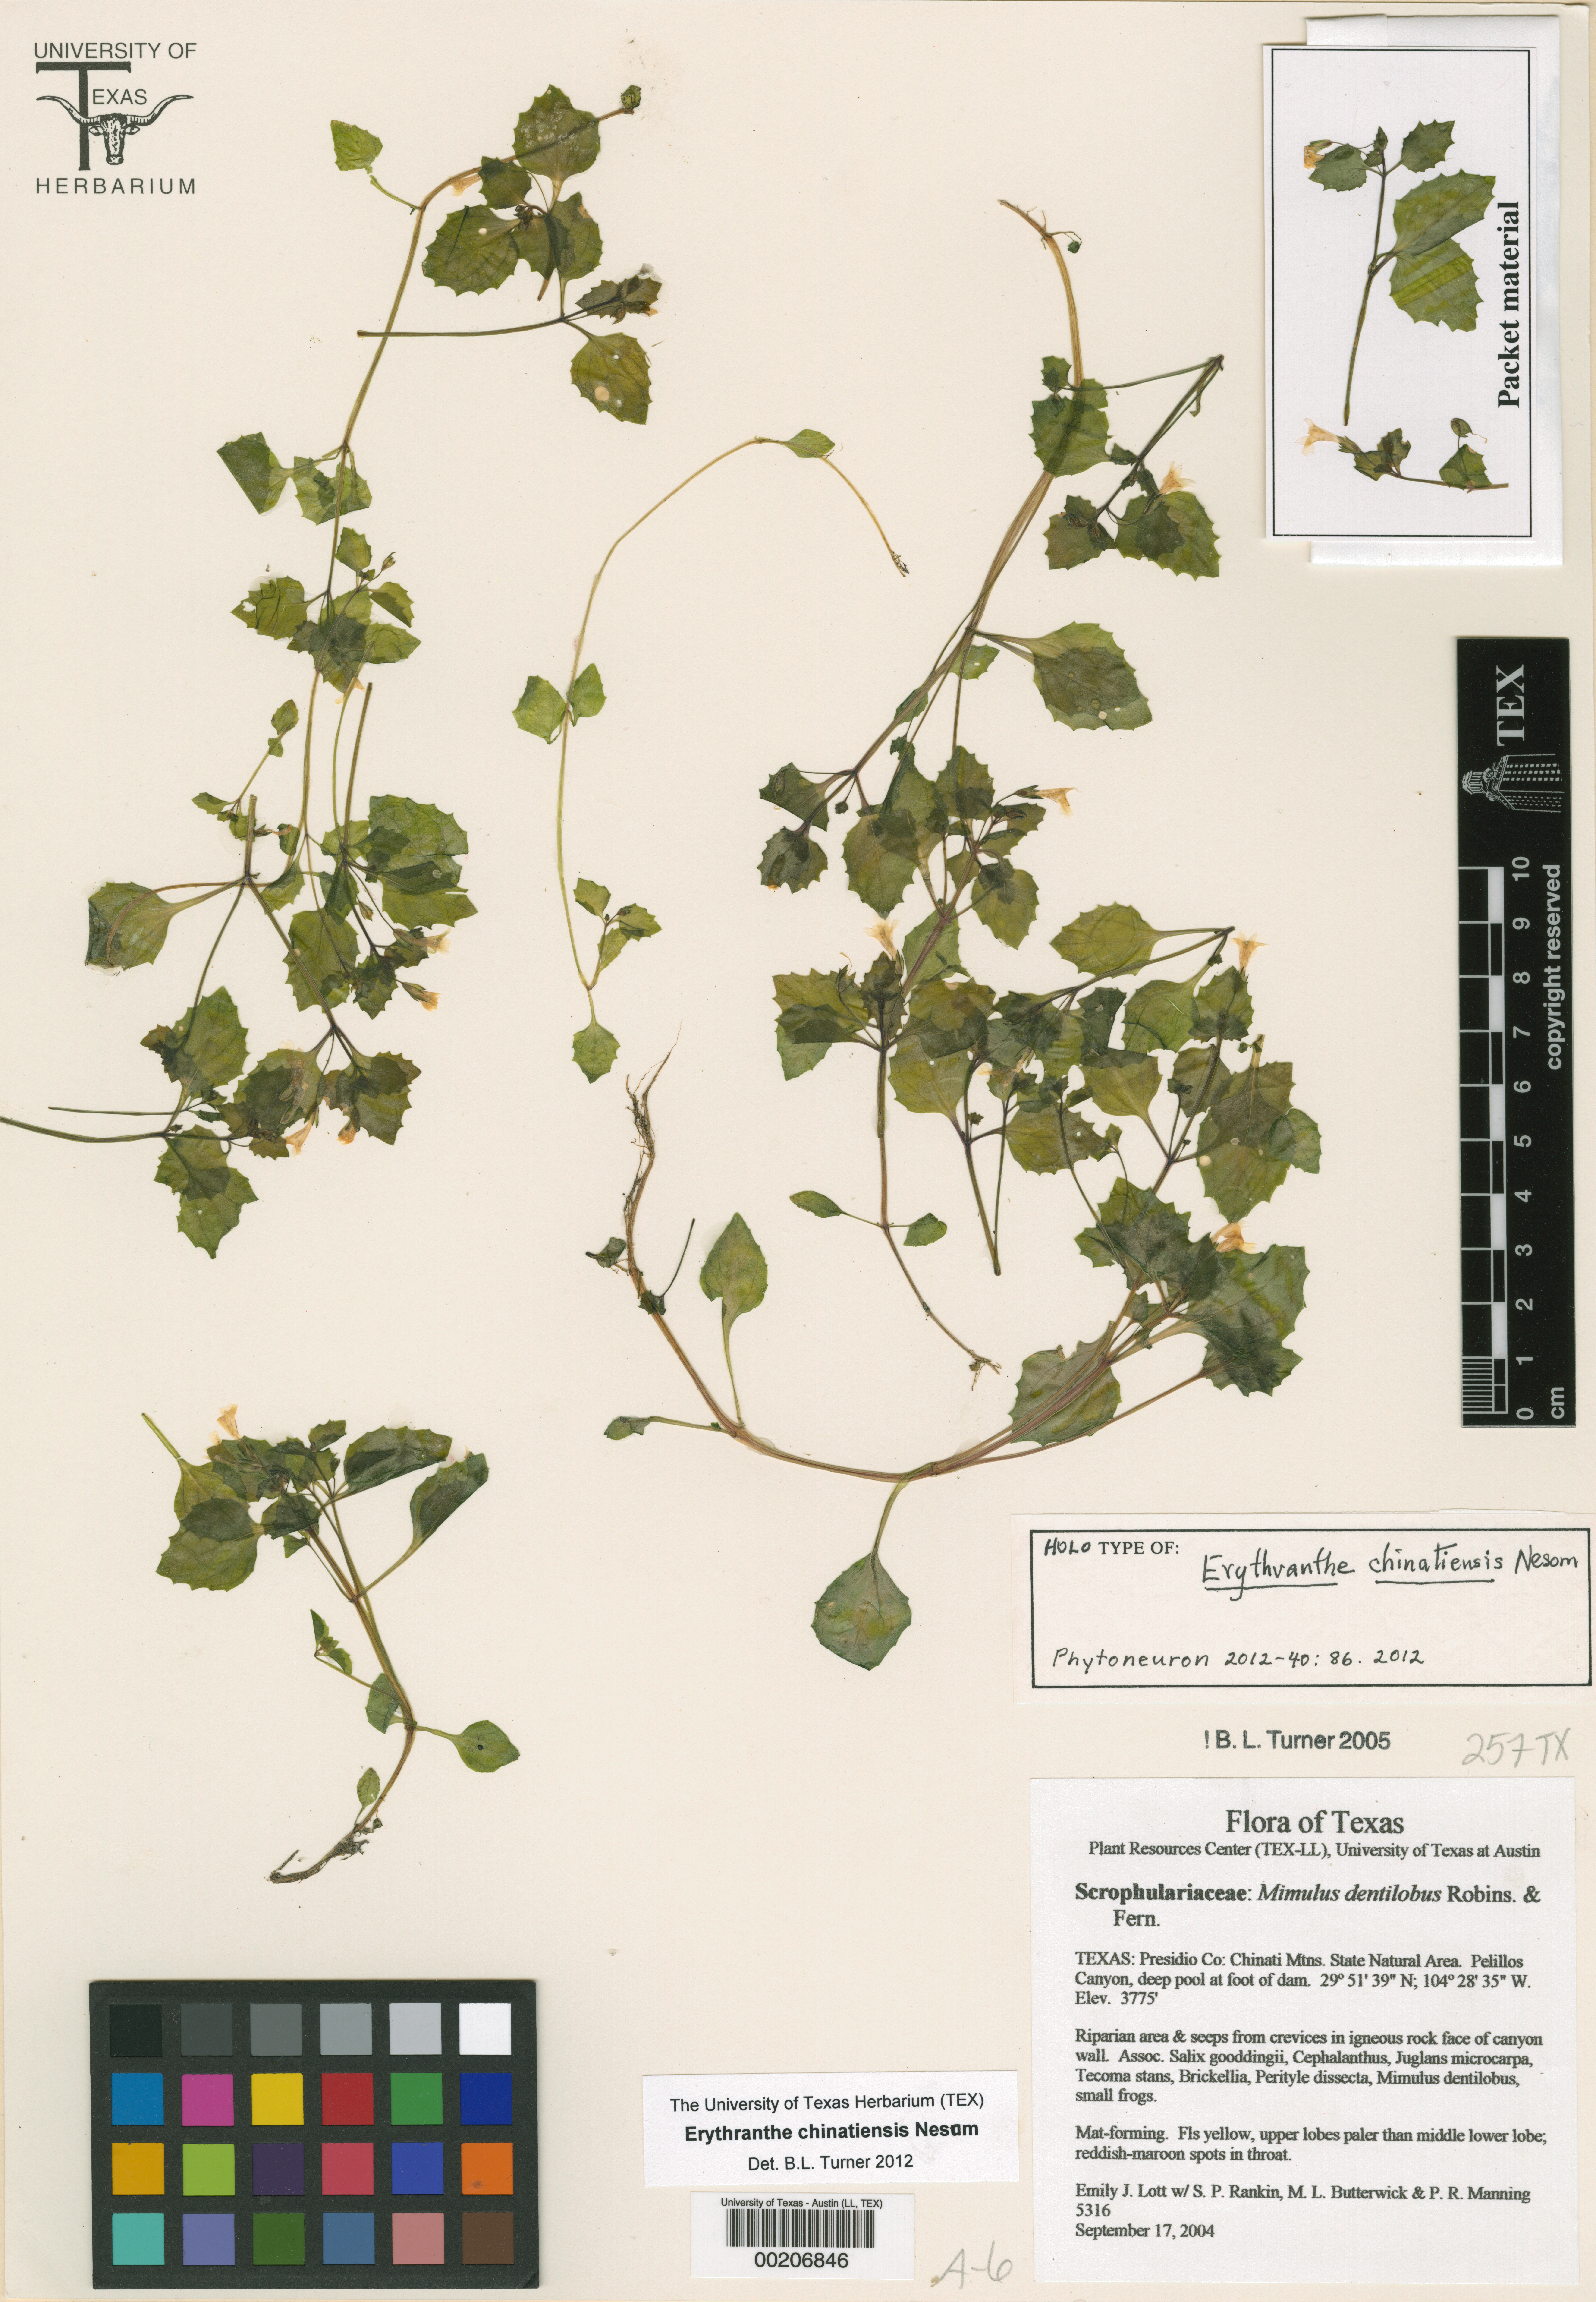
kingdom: Plantae
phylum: Tracheophyta
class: Magnoliopsida
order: Lamiales
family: Phrymaceae
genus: Erythranthe
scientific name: Erythranthe dentiloba
